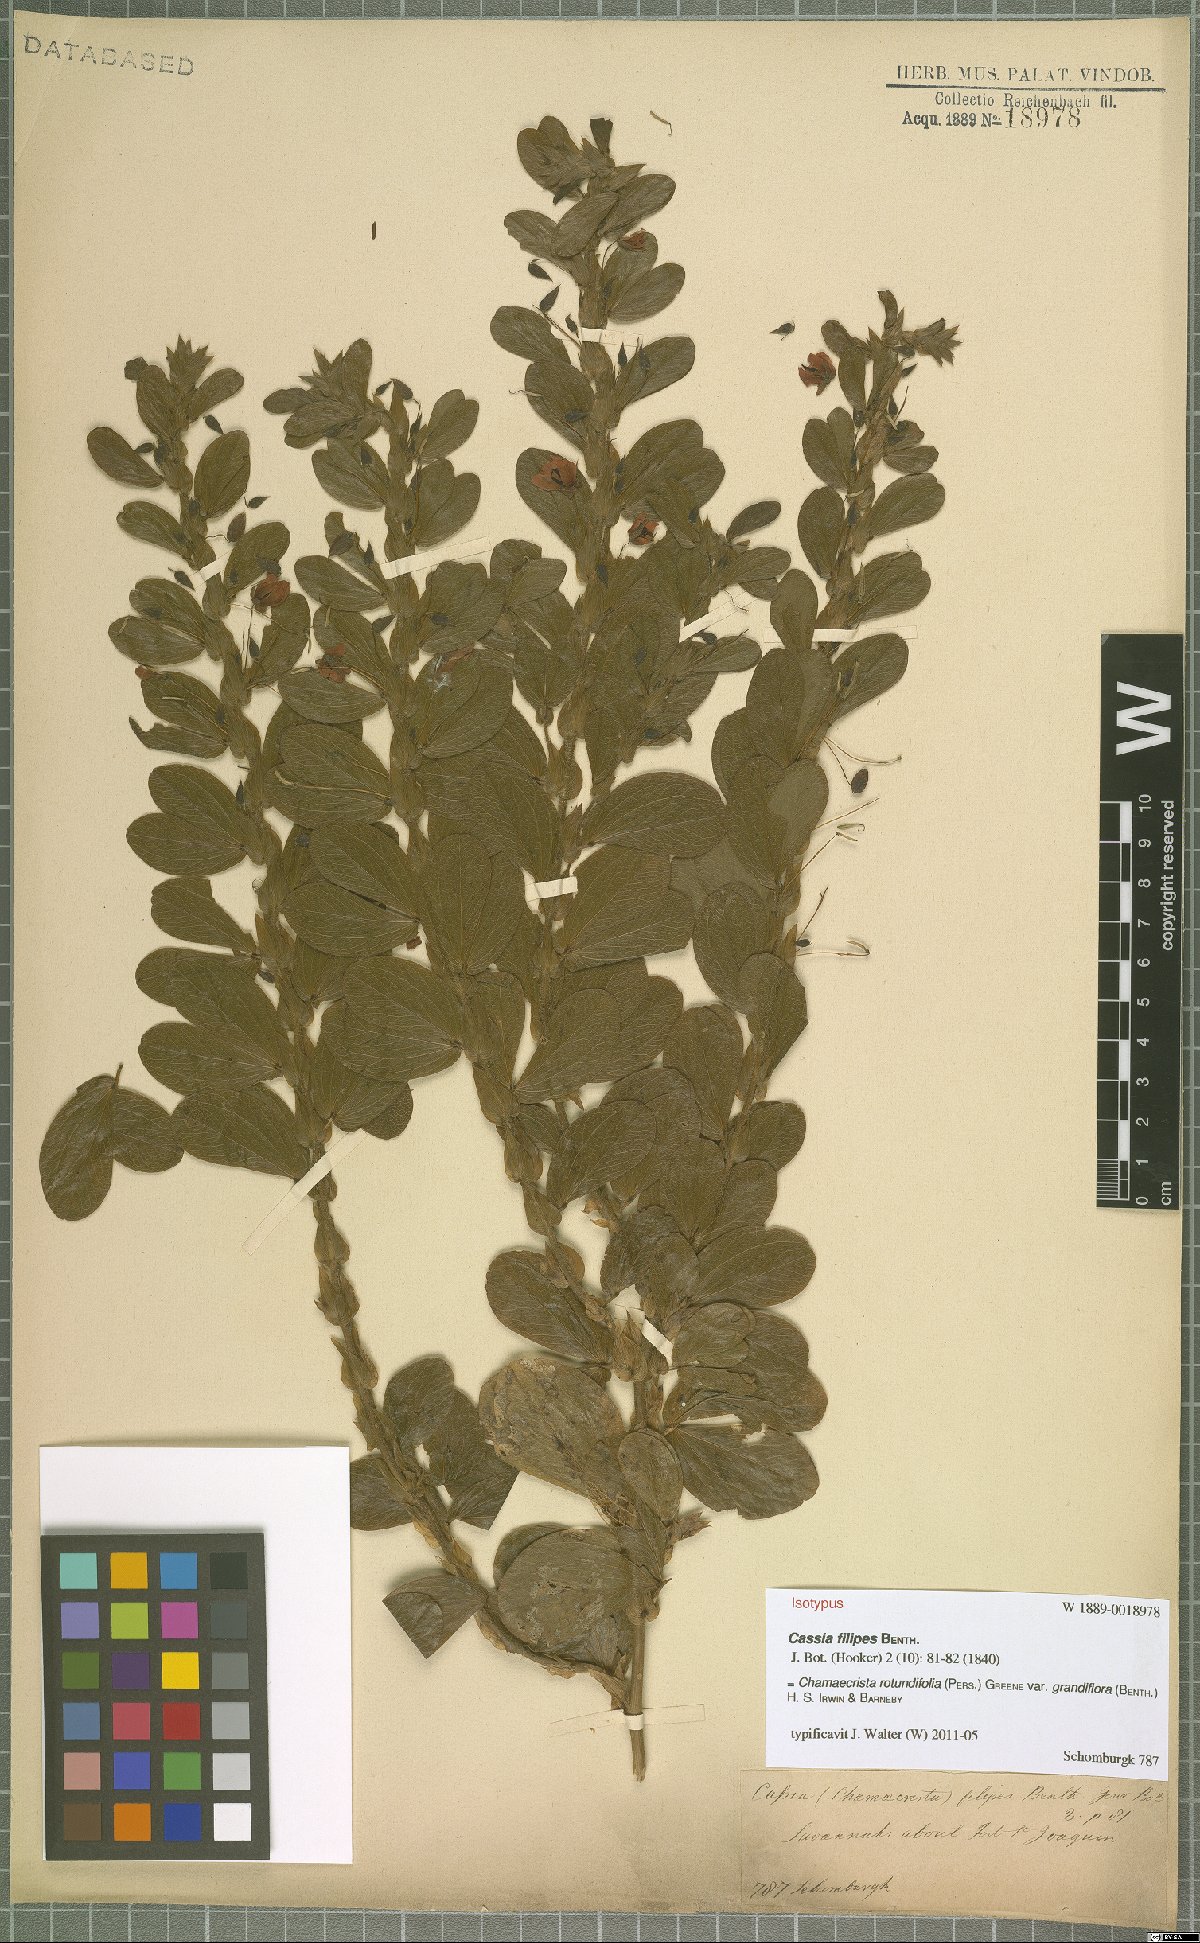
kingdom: Plantae
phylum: Tracheophyta
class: Magnoliopsida
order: Fabales
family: Fabaceae
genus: Chamaecrista
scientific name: Chamaecrista rotundifolia
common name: Round-leaf cassia
